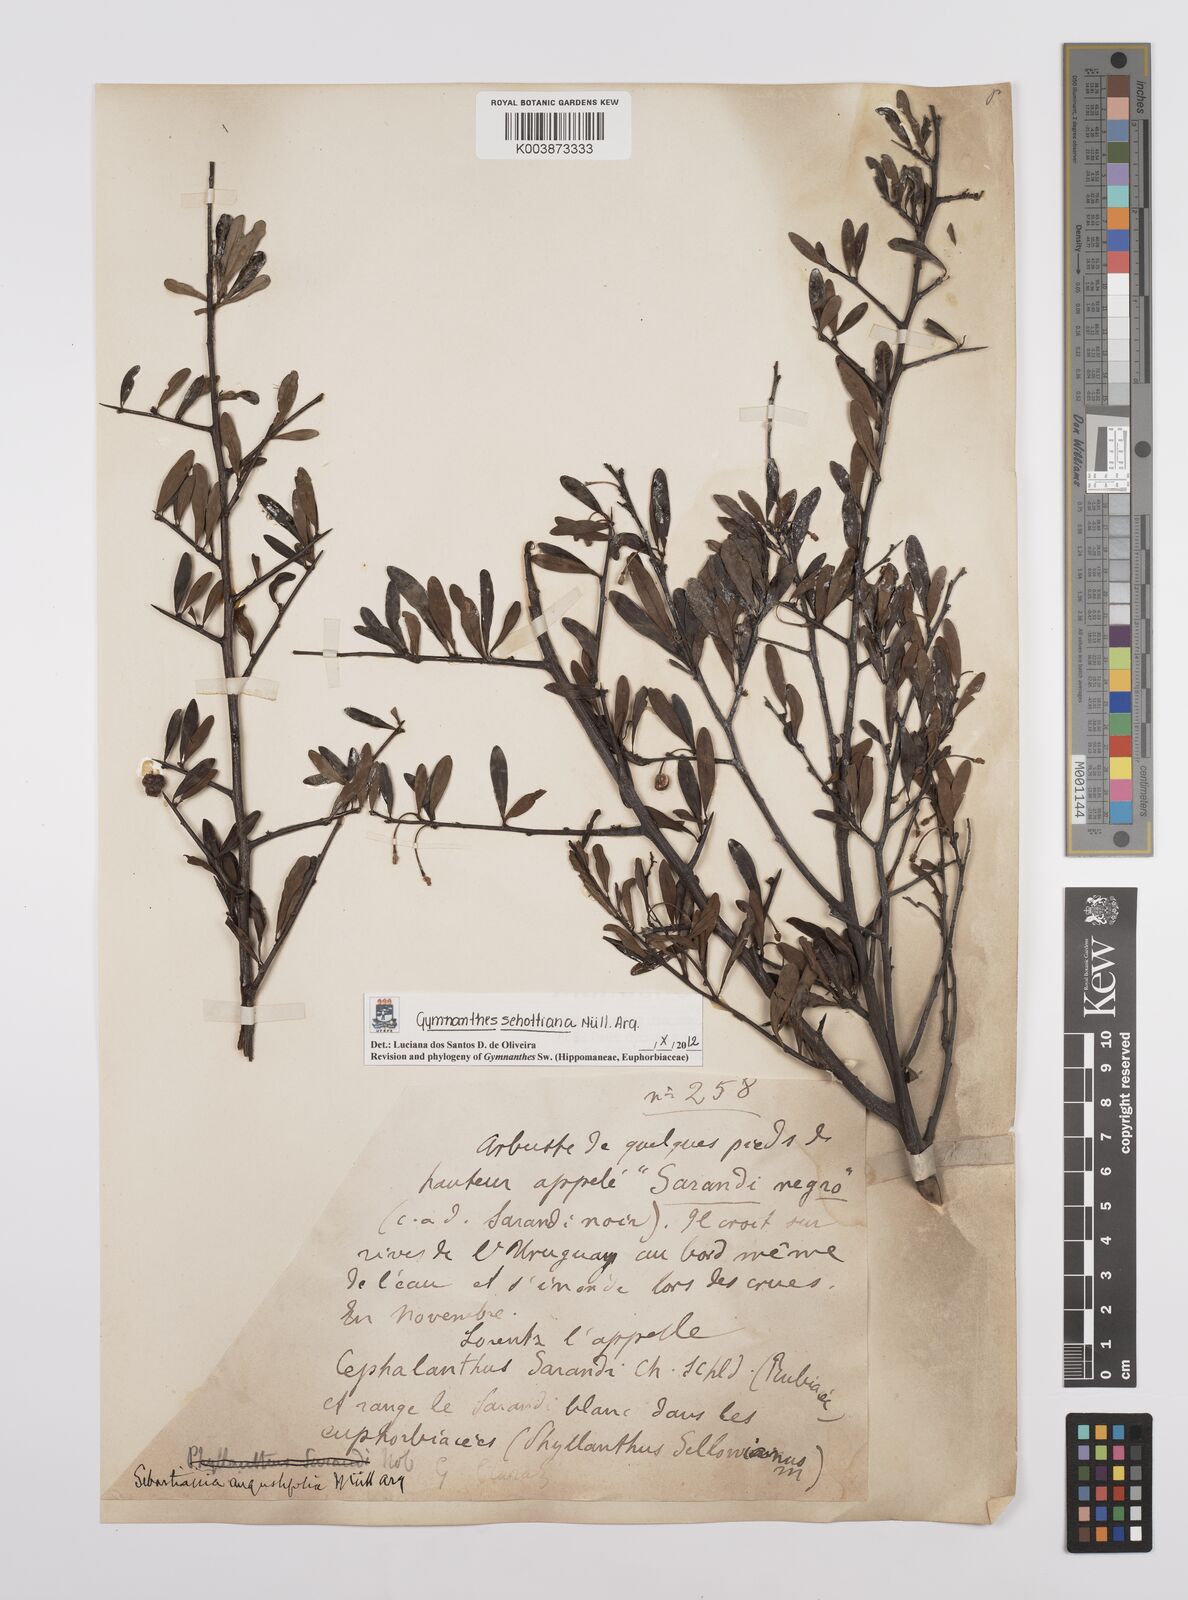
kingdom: Plantae
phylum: Tracheophyta
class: Magnoliopsida
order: Malpighiales
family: Euphorbiaceae
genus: Sebastiania
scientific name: Sebastiania schottiana
